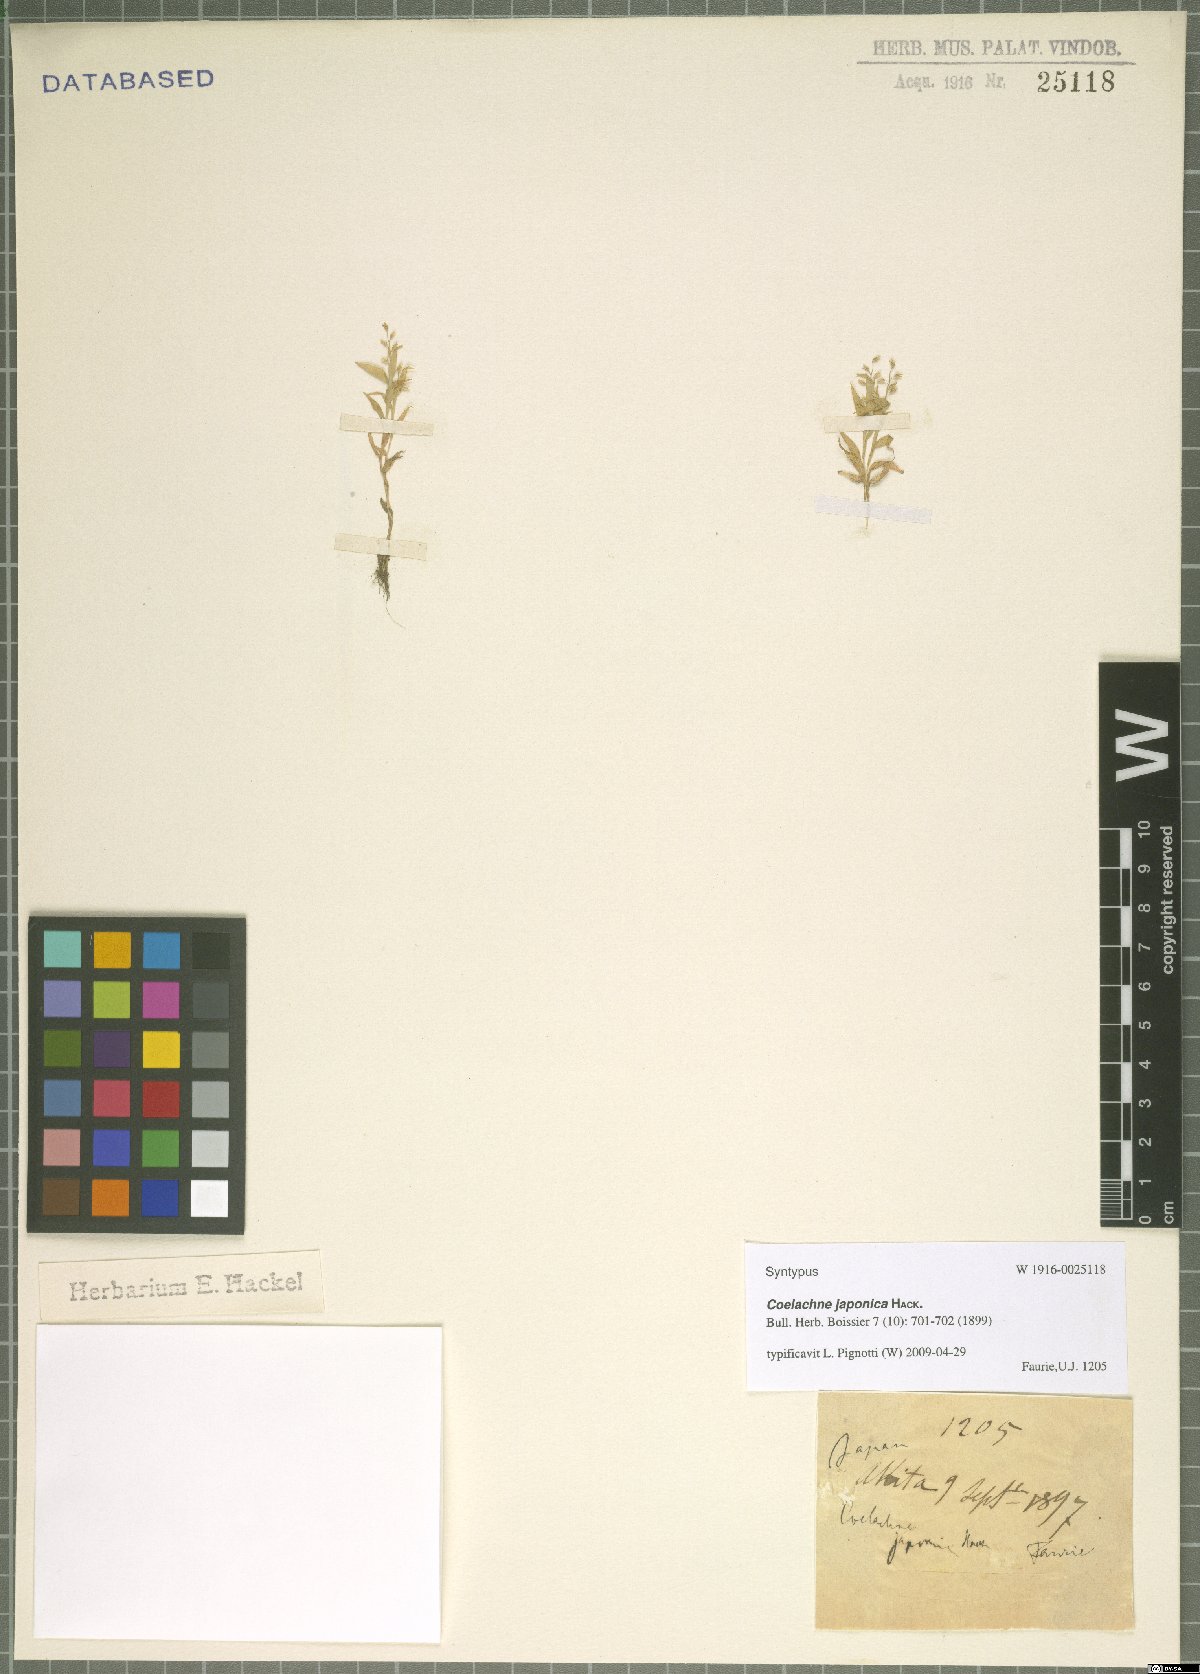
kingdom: Plantae
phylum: Tracheophyta
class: Liliopsida
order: Poales
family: Poaceae
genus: Coelachne
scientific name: Coelachne japonica
